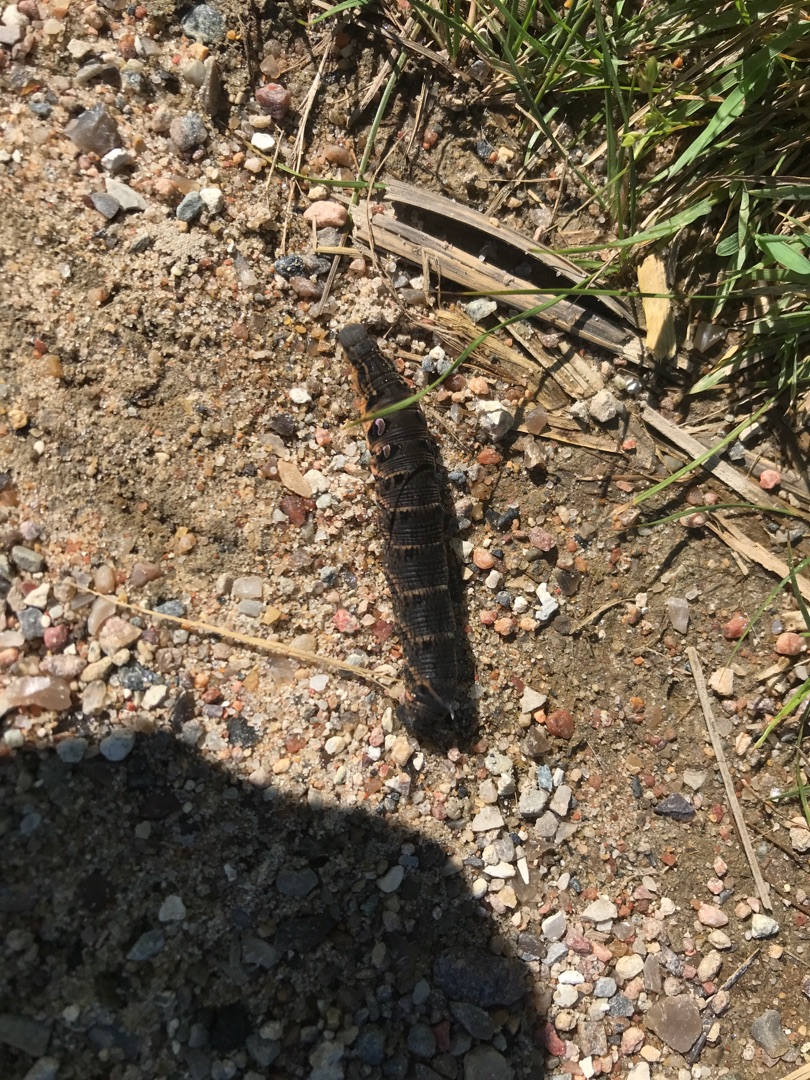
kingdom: Animalia
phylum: Arthropoda
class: Insecta
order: Lepidoptera
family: Sphingidae
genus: Deilephila
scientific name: Deilephila elpenor
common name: Dueurtsværmer
